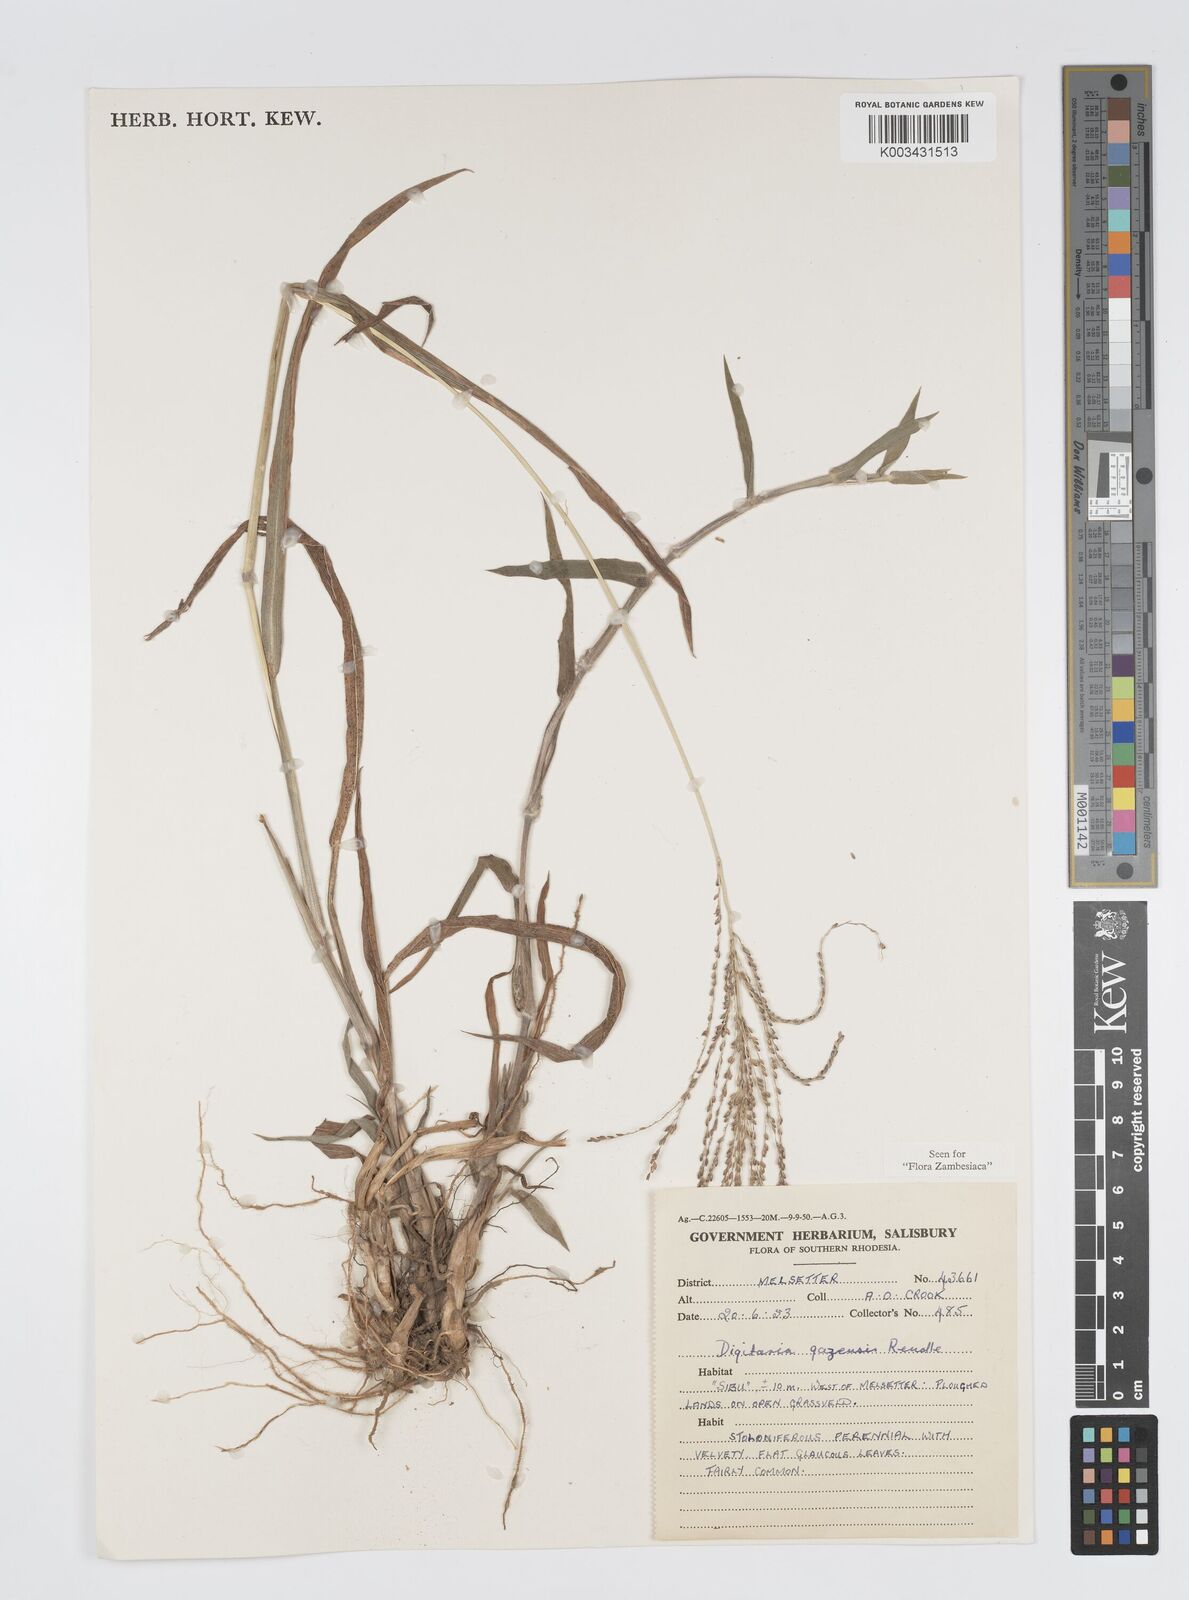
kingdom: Plantae
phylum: Tracheophyta
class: Liliopsida
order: Poales
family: Poaceae
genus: Digitaria
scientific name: Digitaria gazensis
